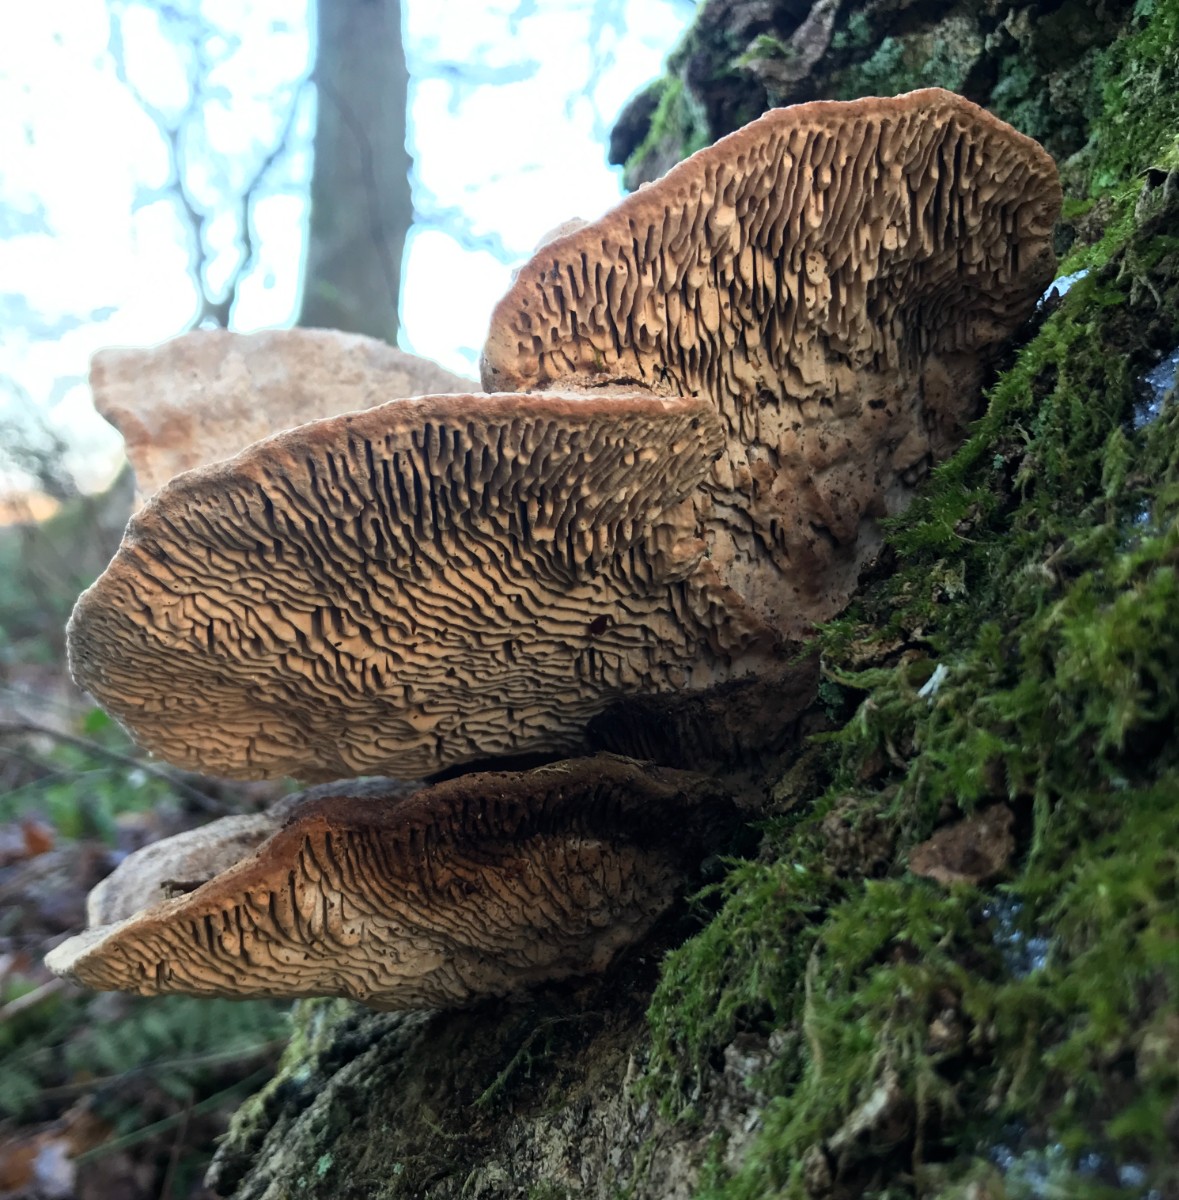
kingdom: Fungi
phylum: Basidiomycota
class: Agaricomycetes
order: Polyporales
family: Fomitopsidaceae
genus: Daedalea
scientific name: Daedalea quercina
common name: ege-labyrintsvamp
